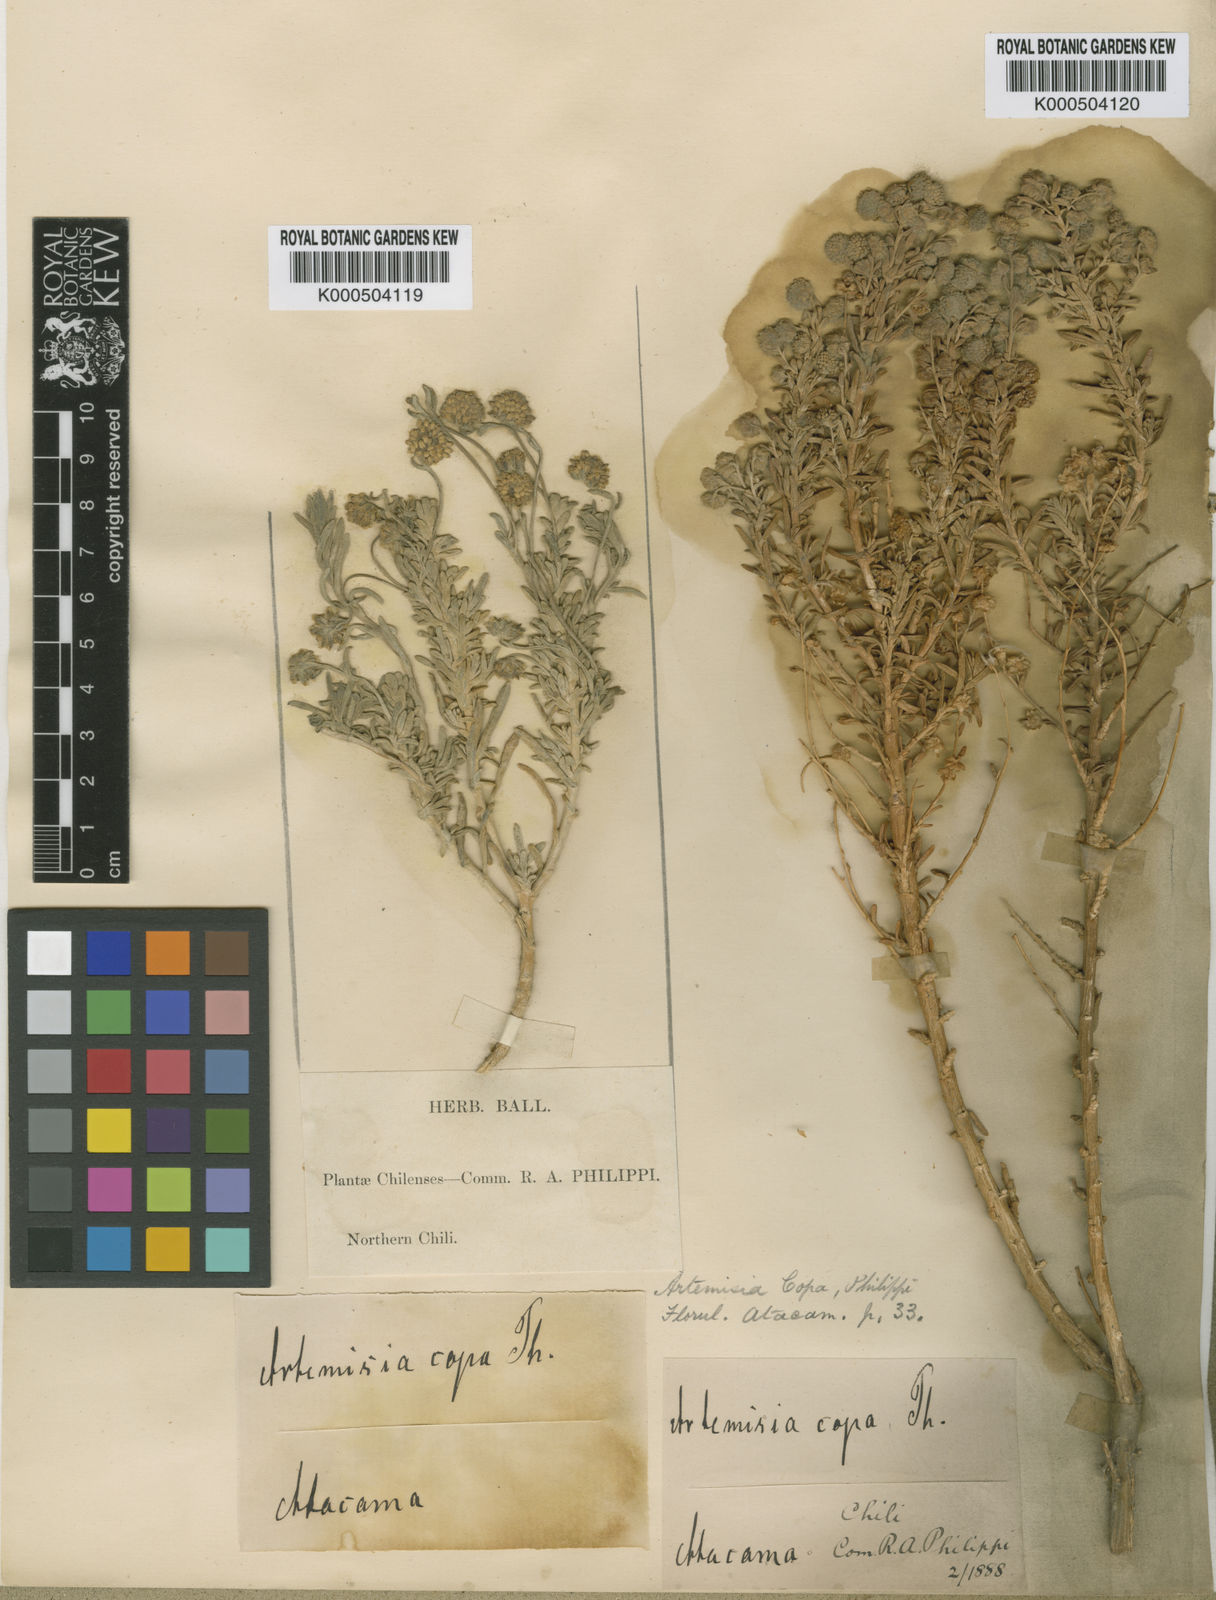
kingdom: Plantae
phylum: Tracheophyta
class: Magnoliopsida
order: Asterales
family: Asteraceae
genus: Artemisia
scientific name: Artemisia copa
